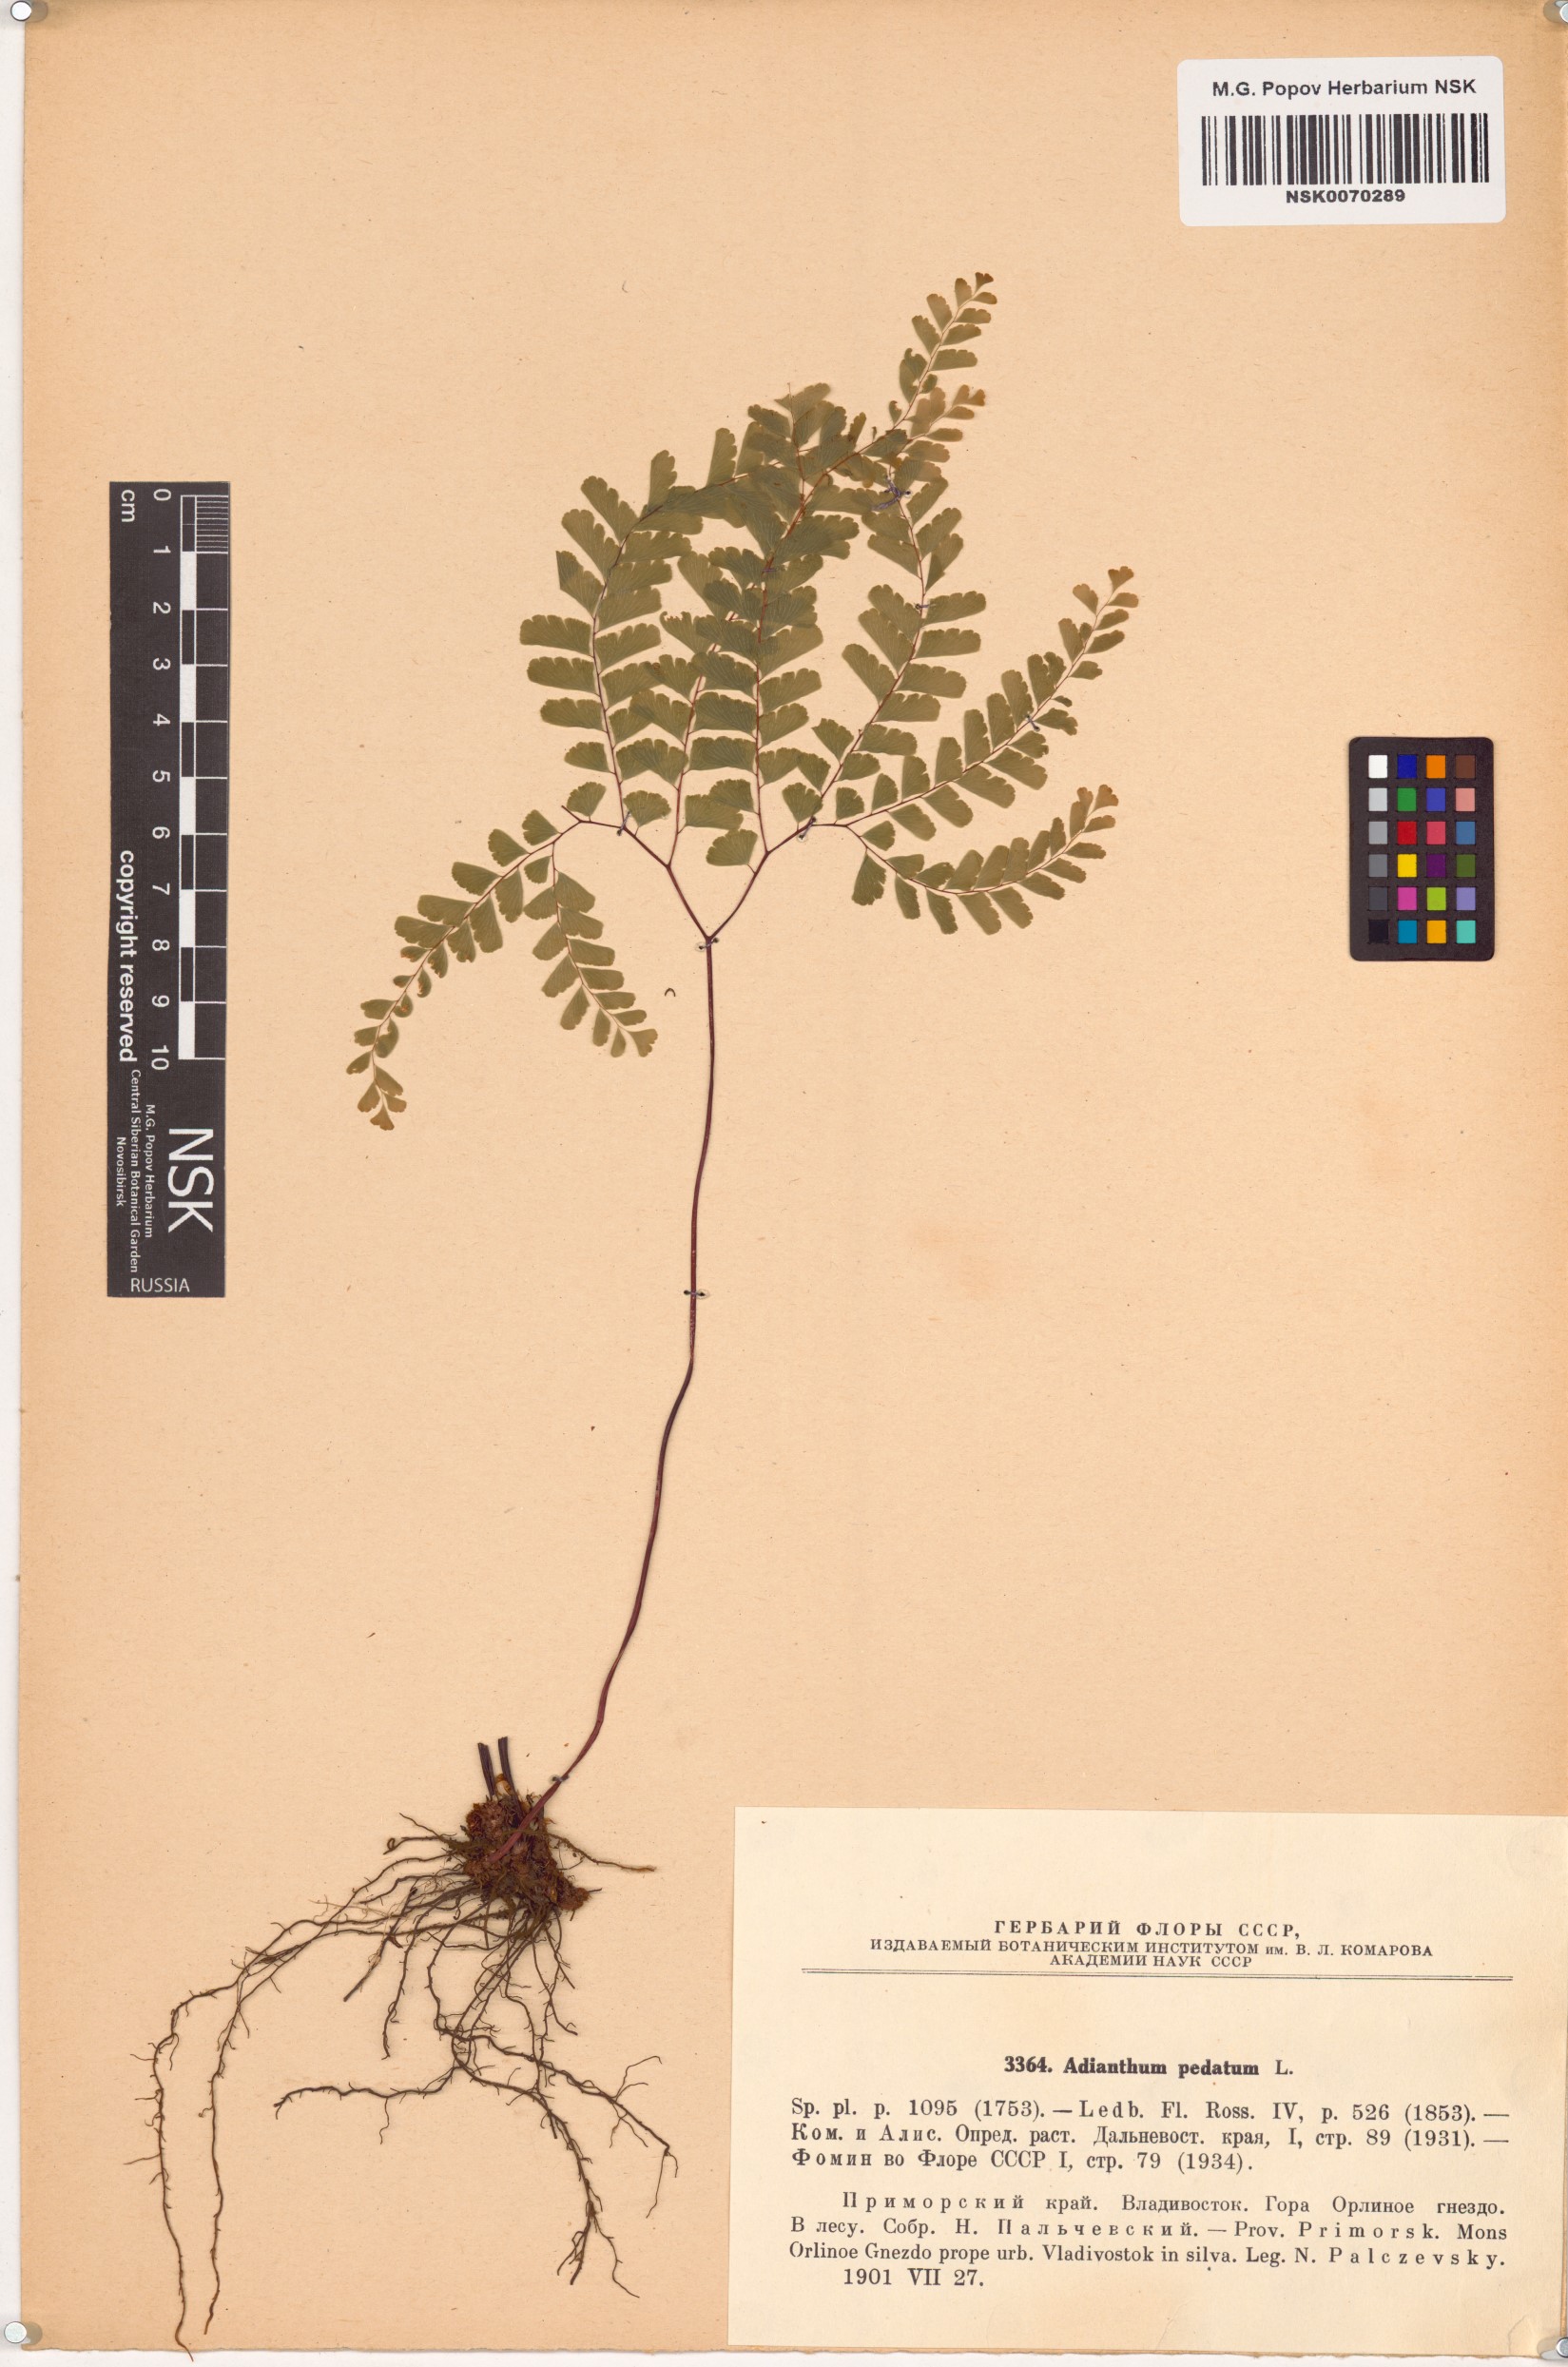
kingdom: Plantae
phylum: Tracheophyta
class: Polypodiopsida
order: Polypodiales
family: Pteridaceae
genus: Adiantum
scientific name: Adiantum pedatum
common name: Five-finger fern
